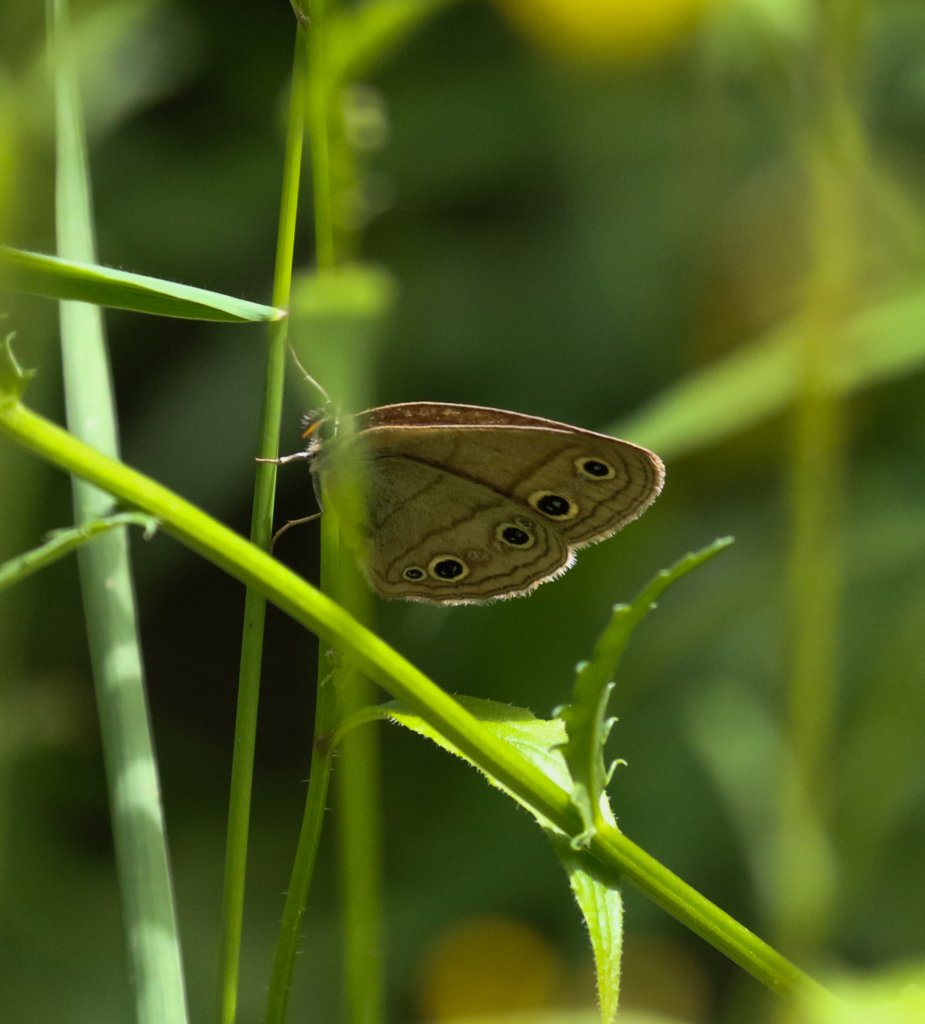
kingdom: Animalia
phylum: Arthropoda
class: Insecta
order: Lepidoptera
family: Nymphalidae
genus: Euptychia
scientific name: Euptychia cymela
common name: Little Wood Satyr
